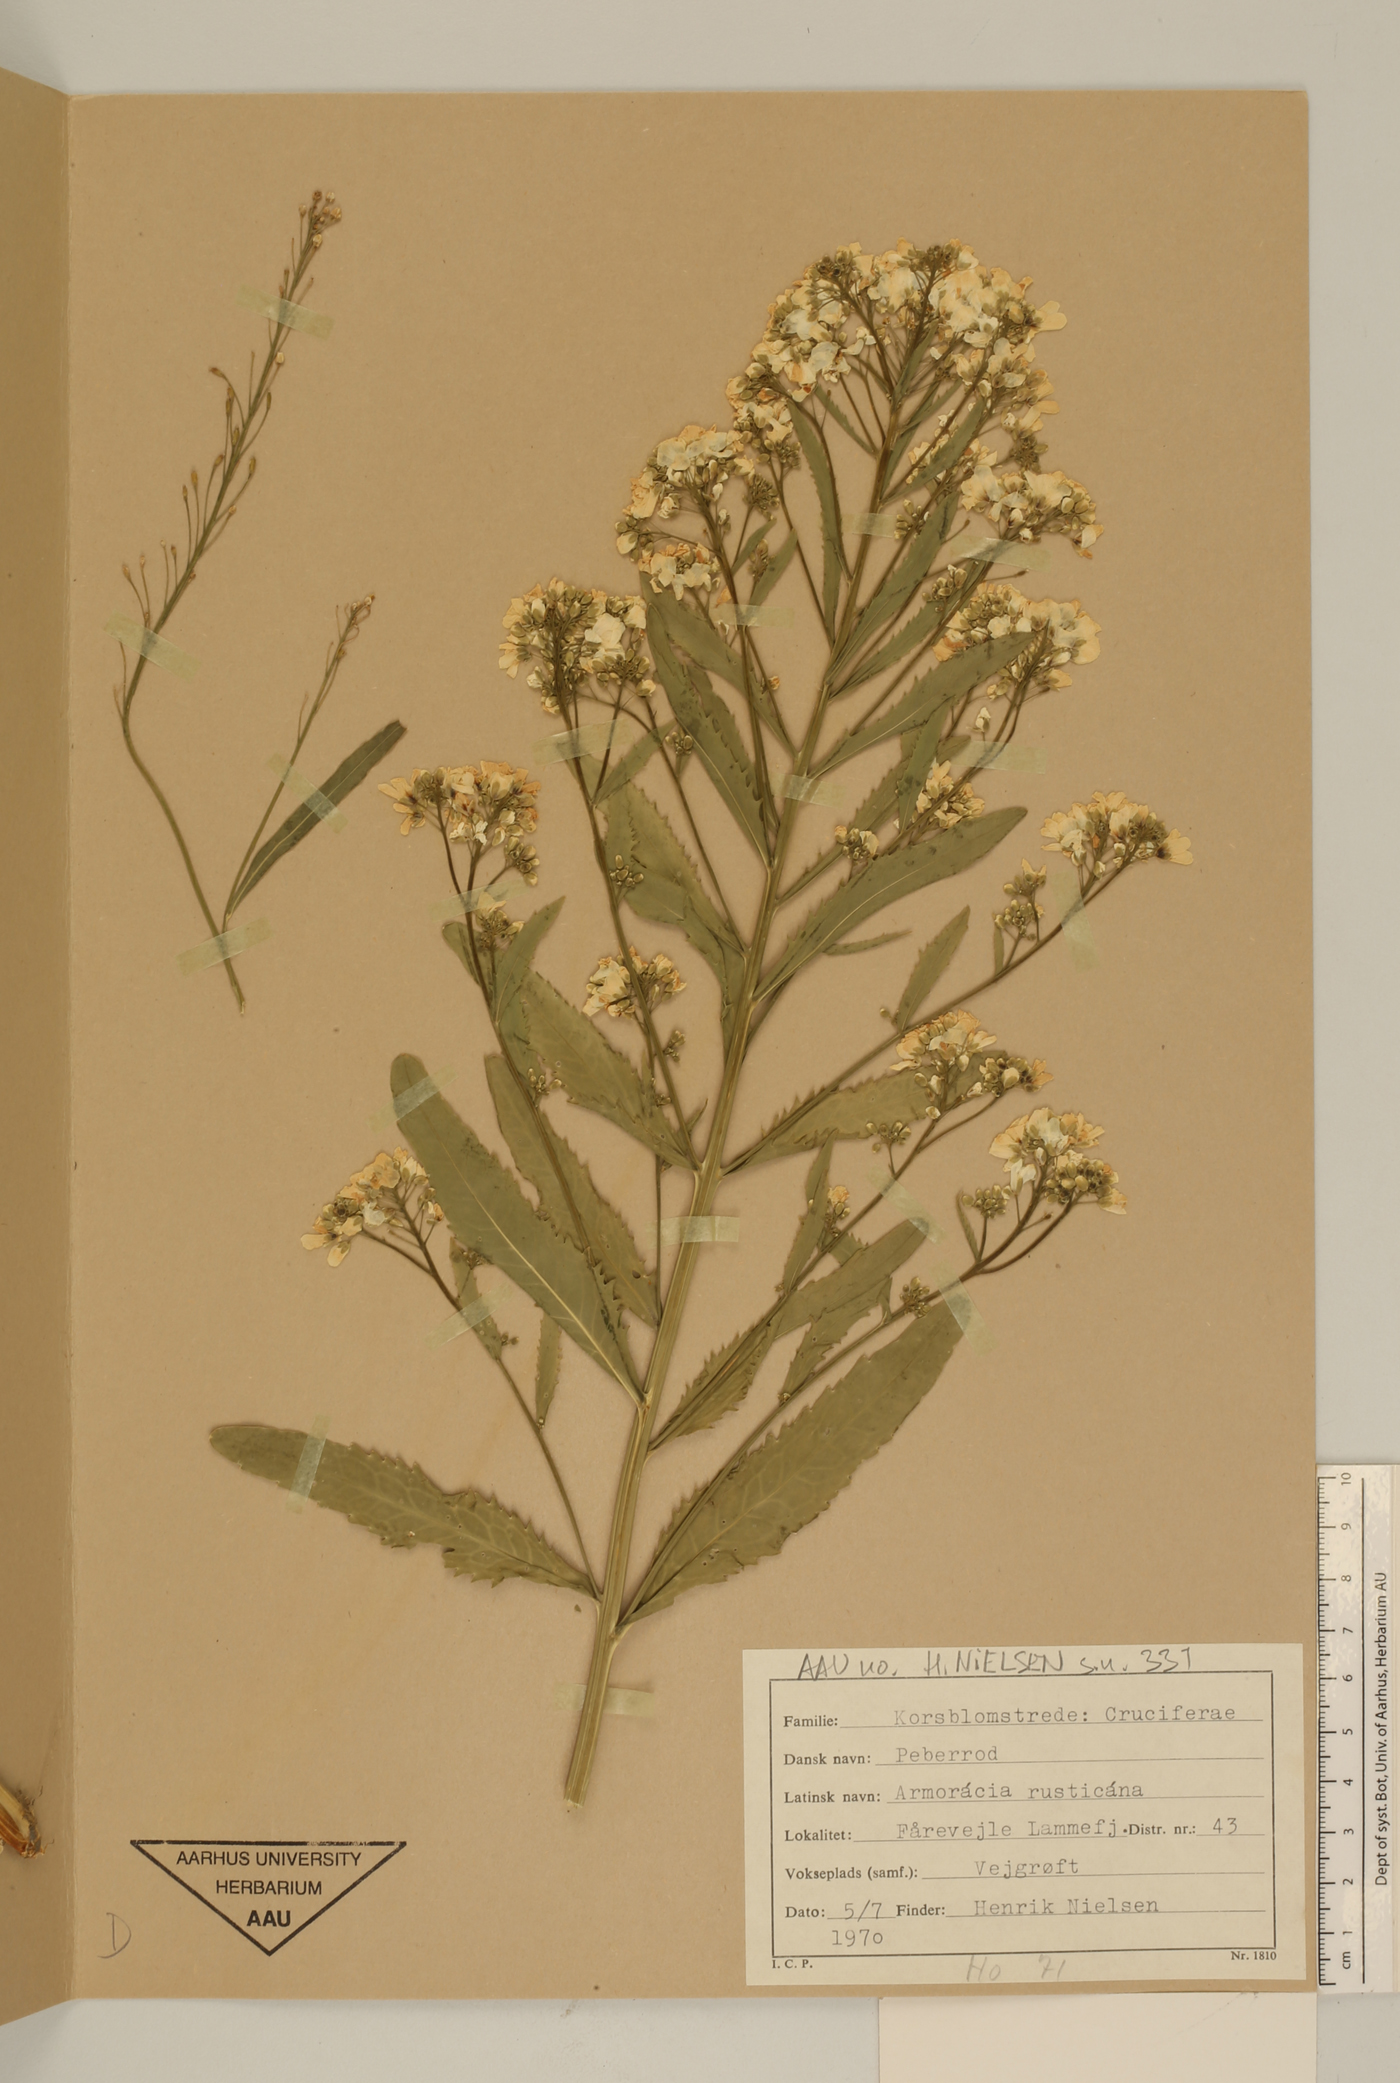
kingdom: Plantae
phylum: Tracheophyta
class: Magnoliopsida
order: Brassicales
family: Brassicaceae
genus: Armoracia
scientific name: Armoracia rusticana
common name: Horseradish
